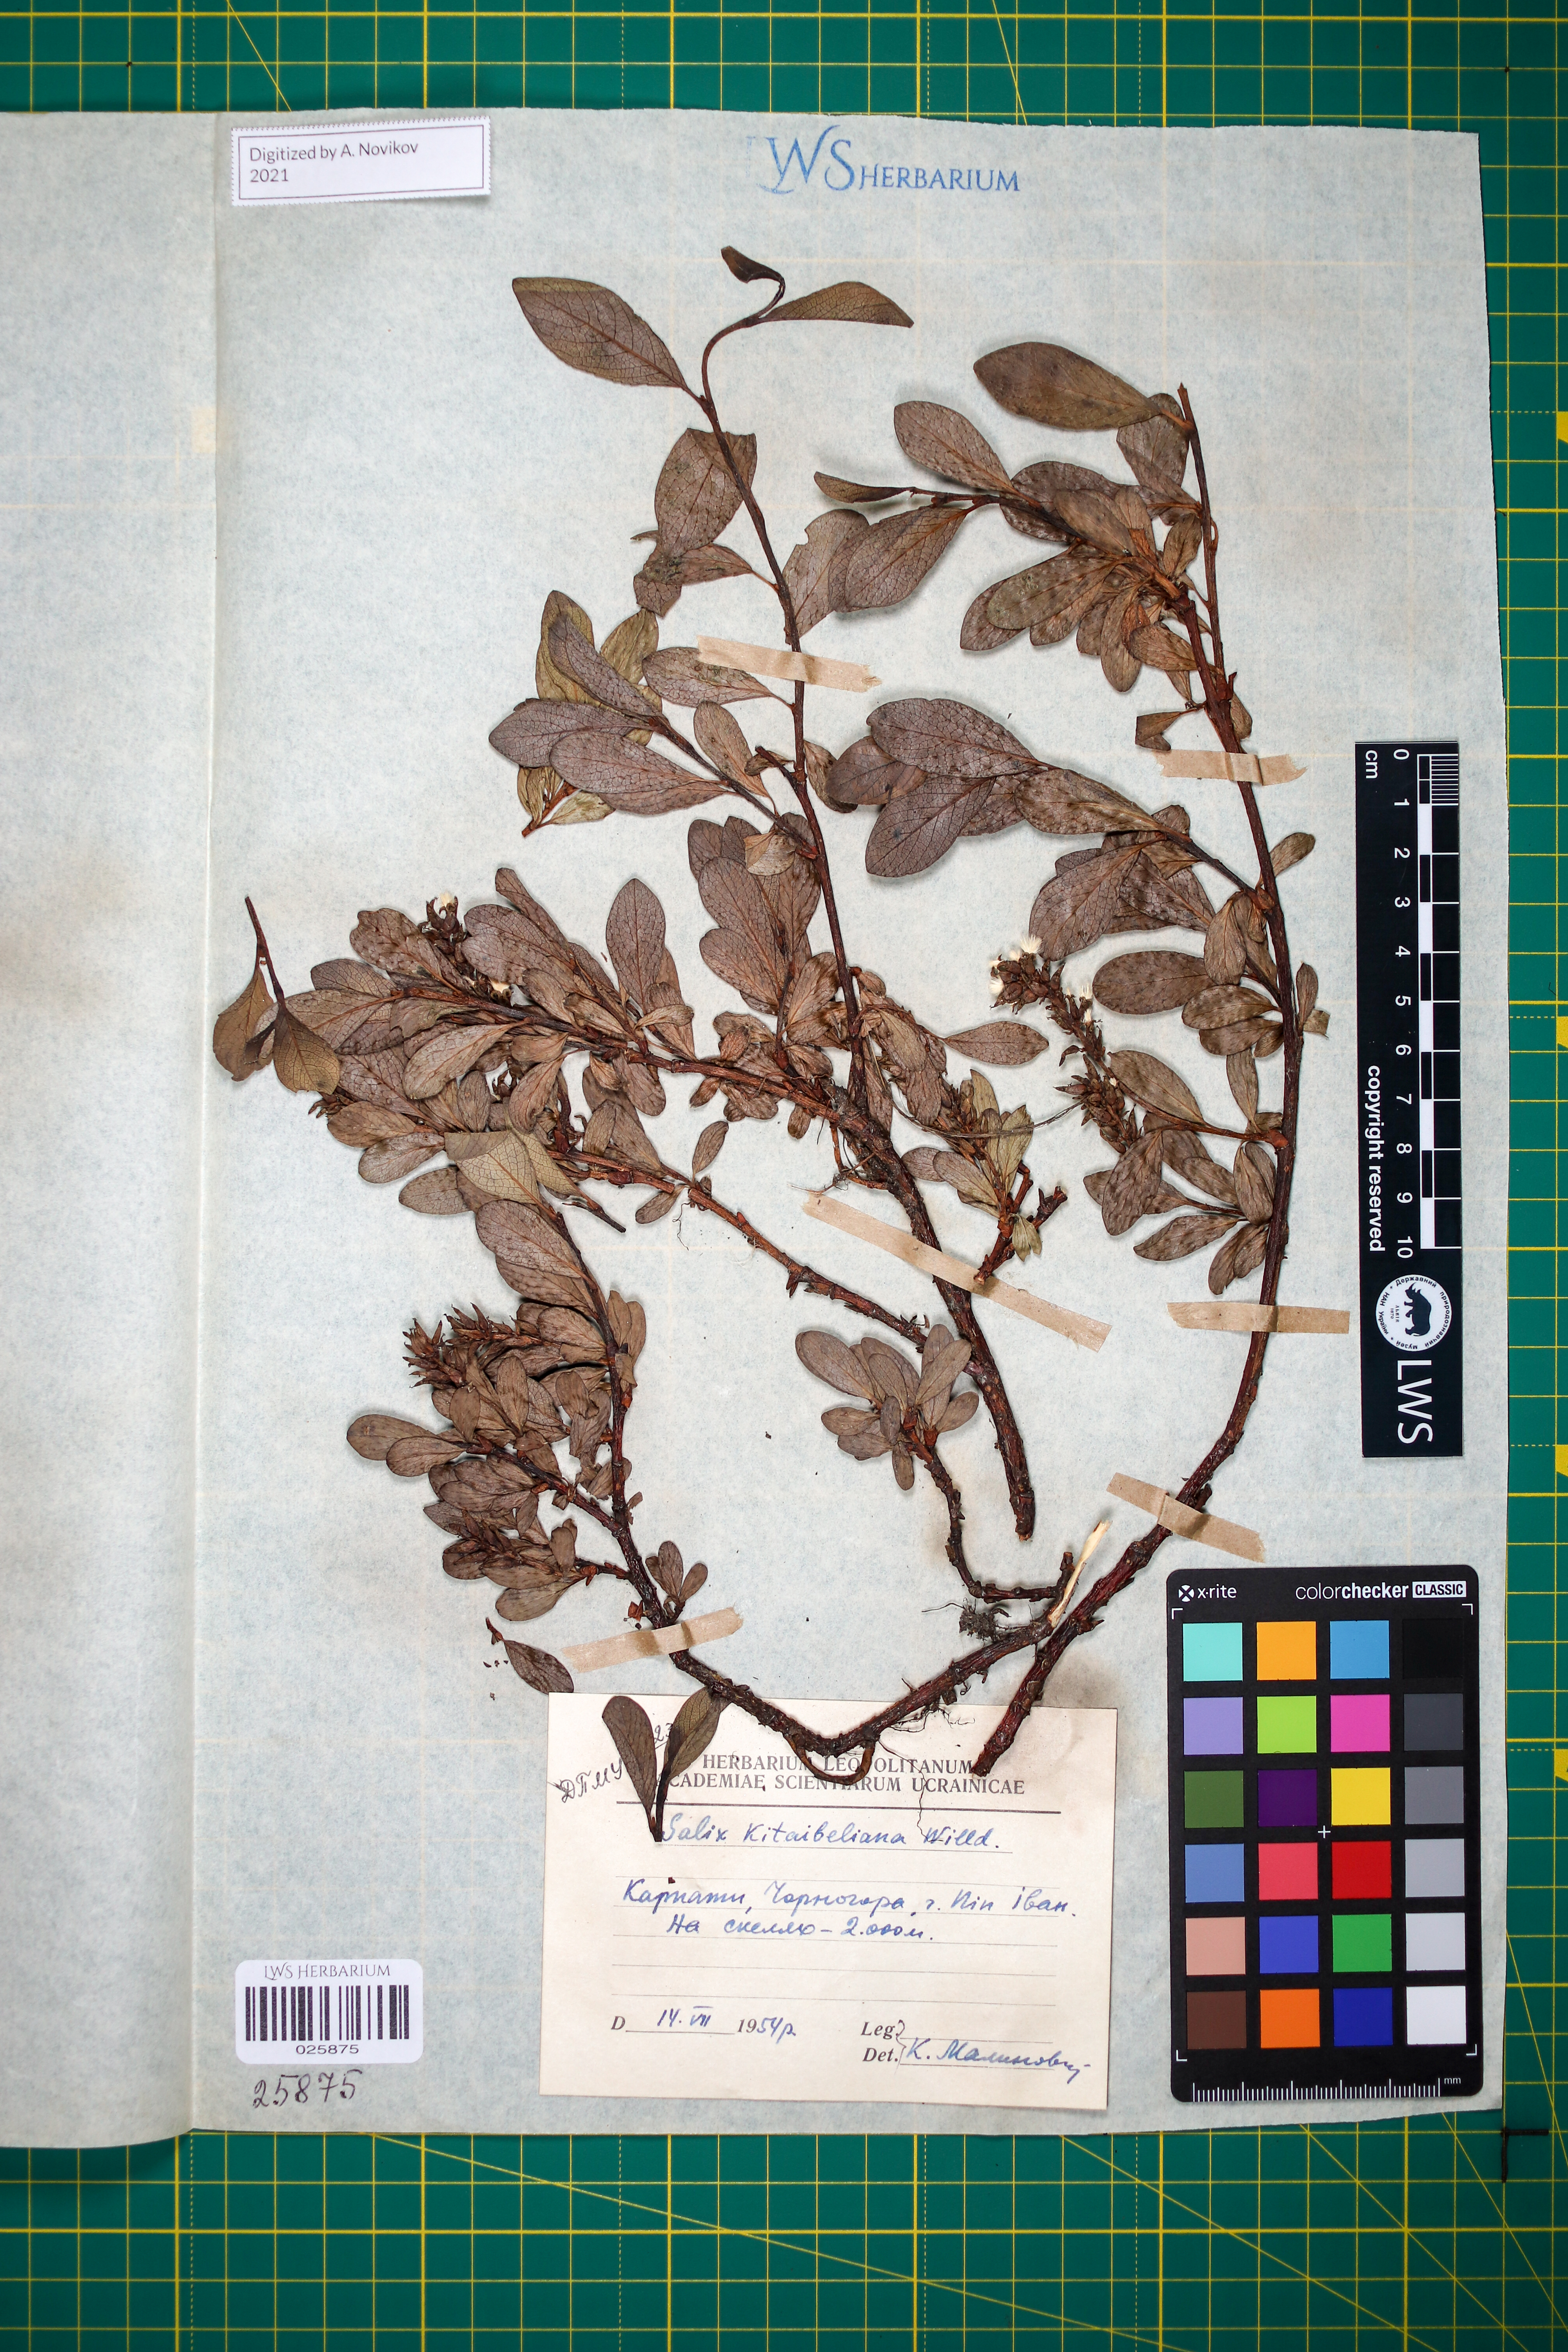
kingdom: Plantae
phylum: Tracheophyta
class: Magnoliopsida
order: Malpighiales
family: Salicaceae
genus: Salix
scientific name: Salix retusa
